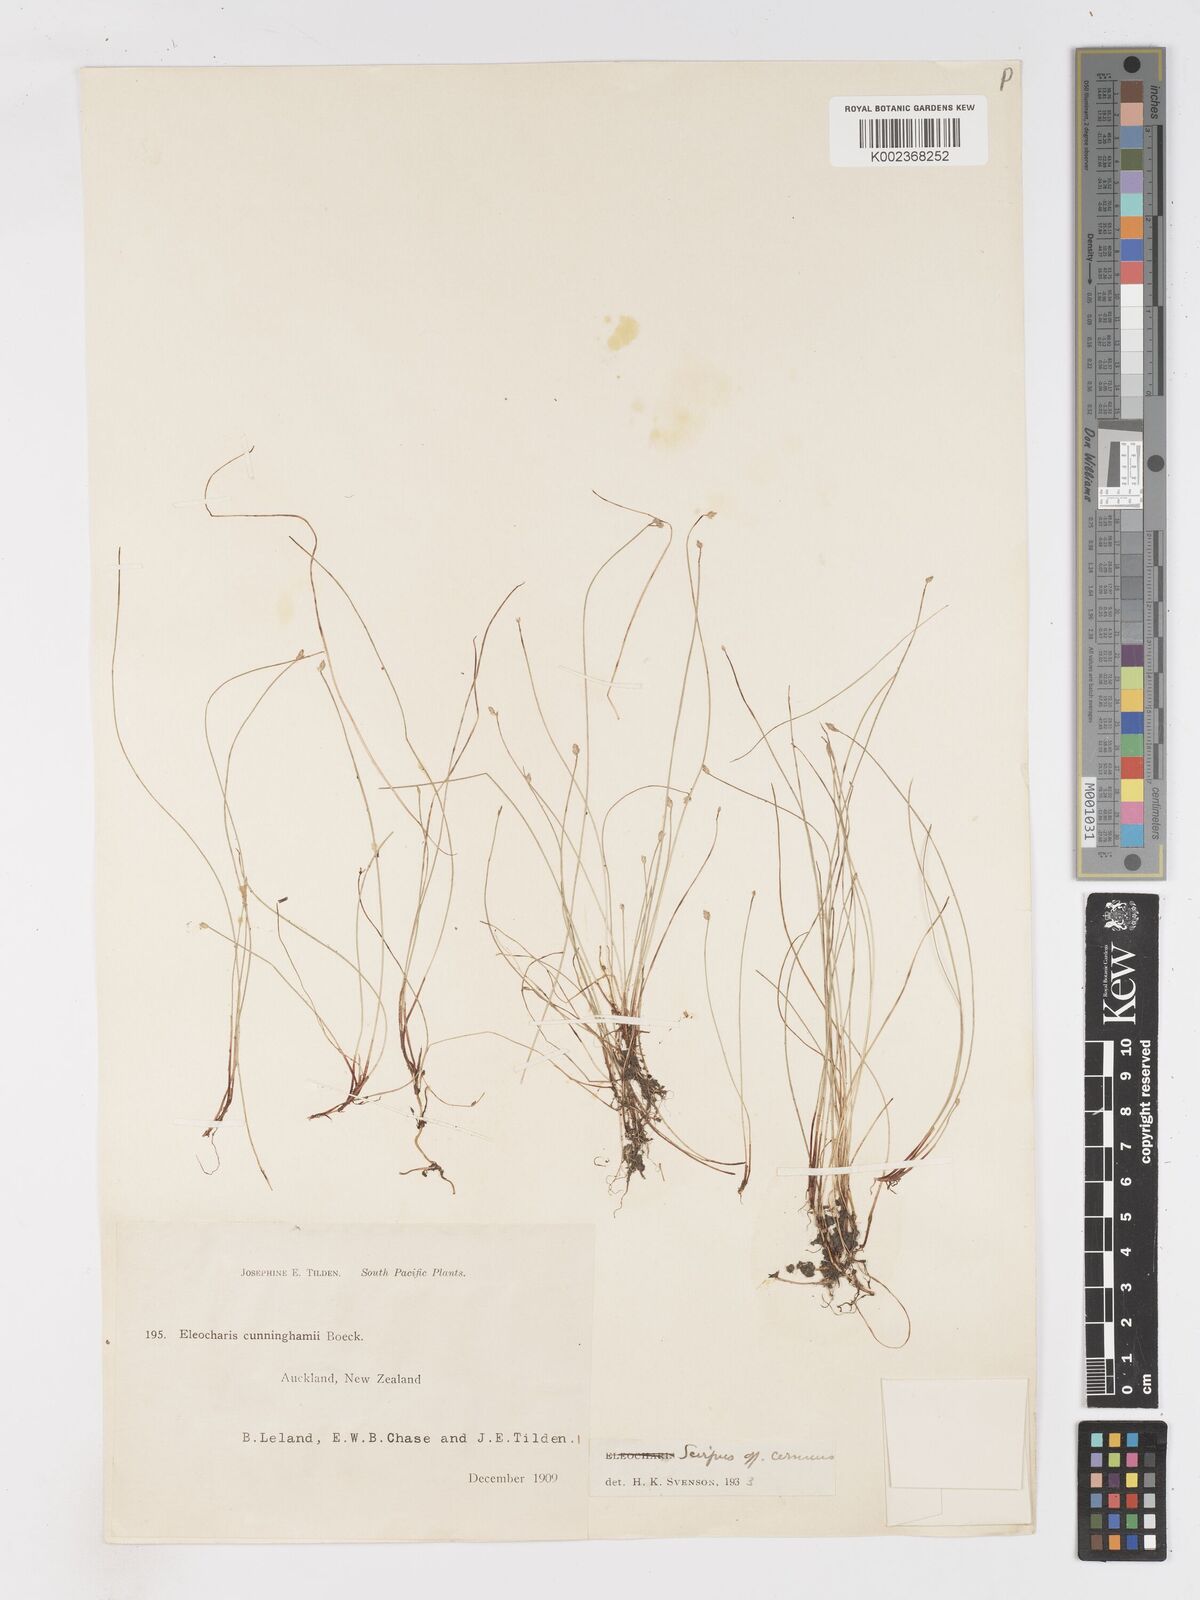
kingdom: Plantae
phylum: Tracheophyta
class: Liliopsida
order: Poales
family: Cyperaceae
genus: Isolepis
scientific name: Isolepis cernua
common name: Slender club-rush
